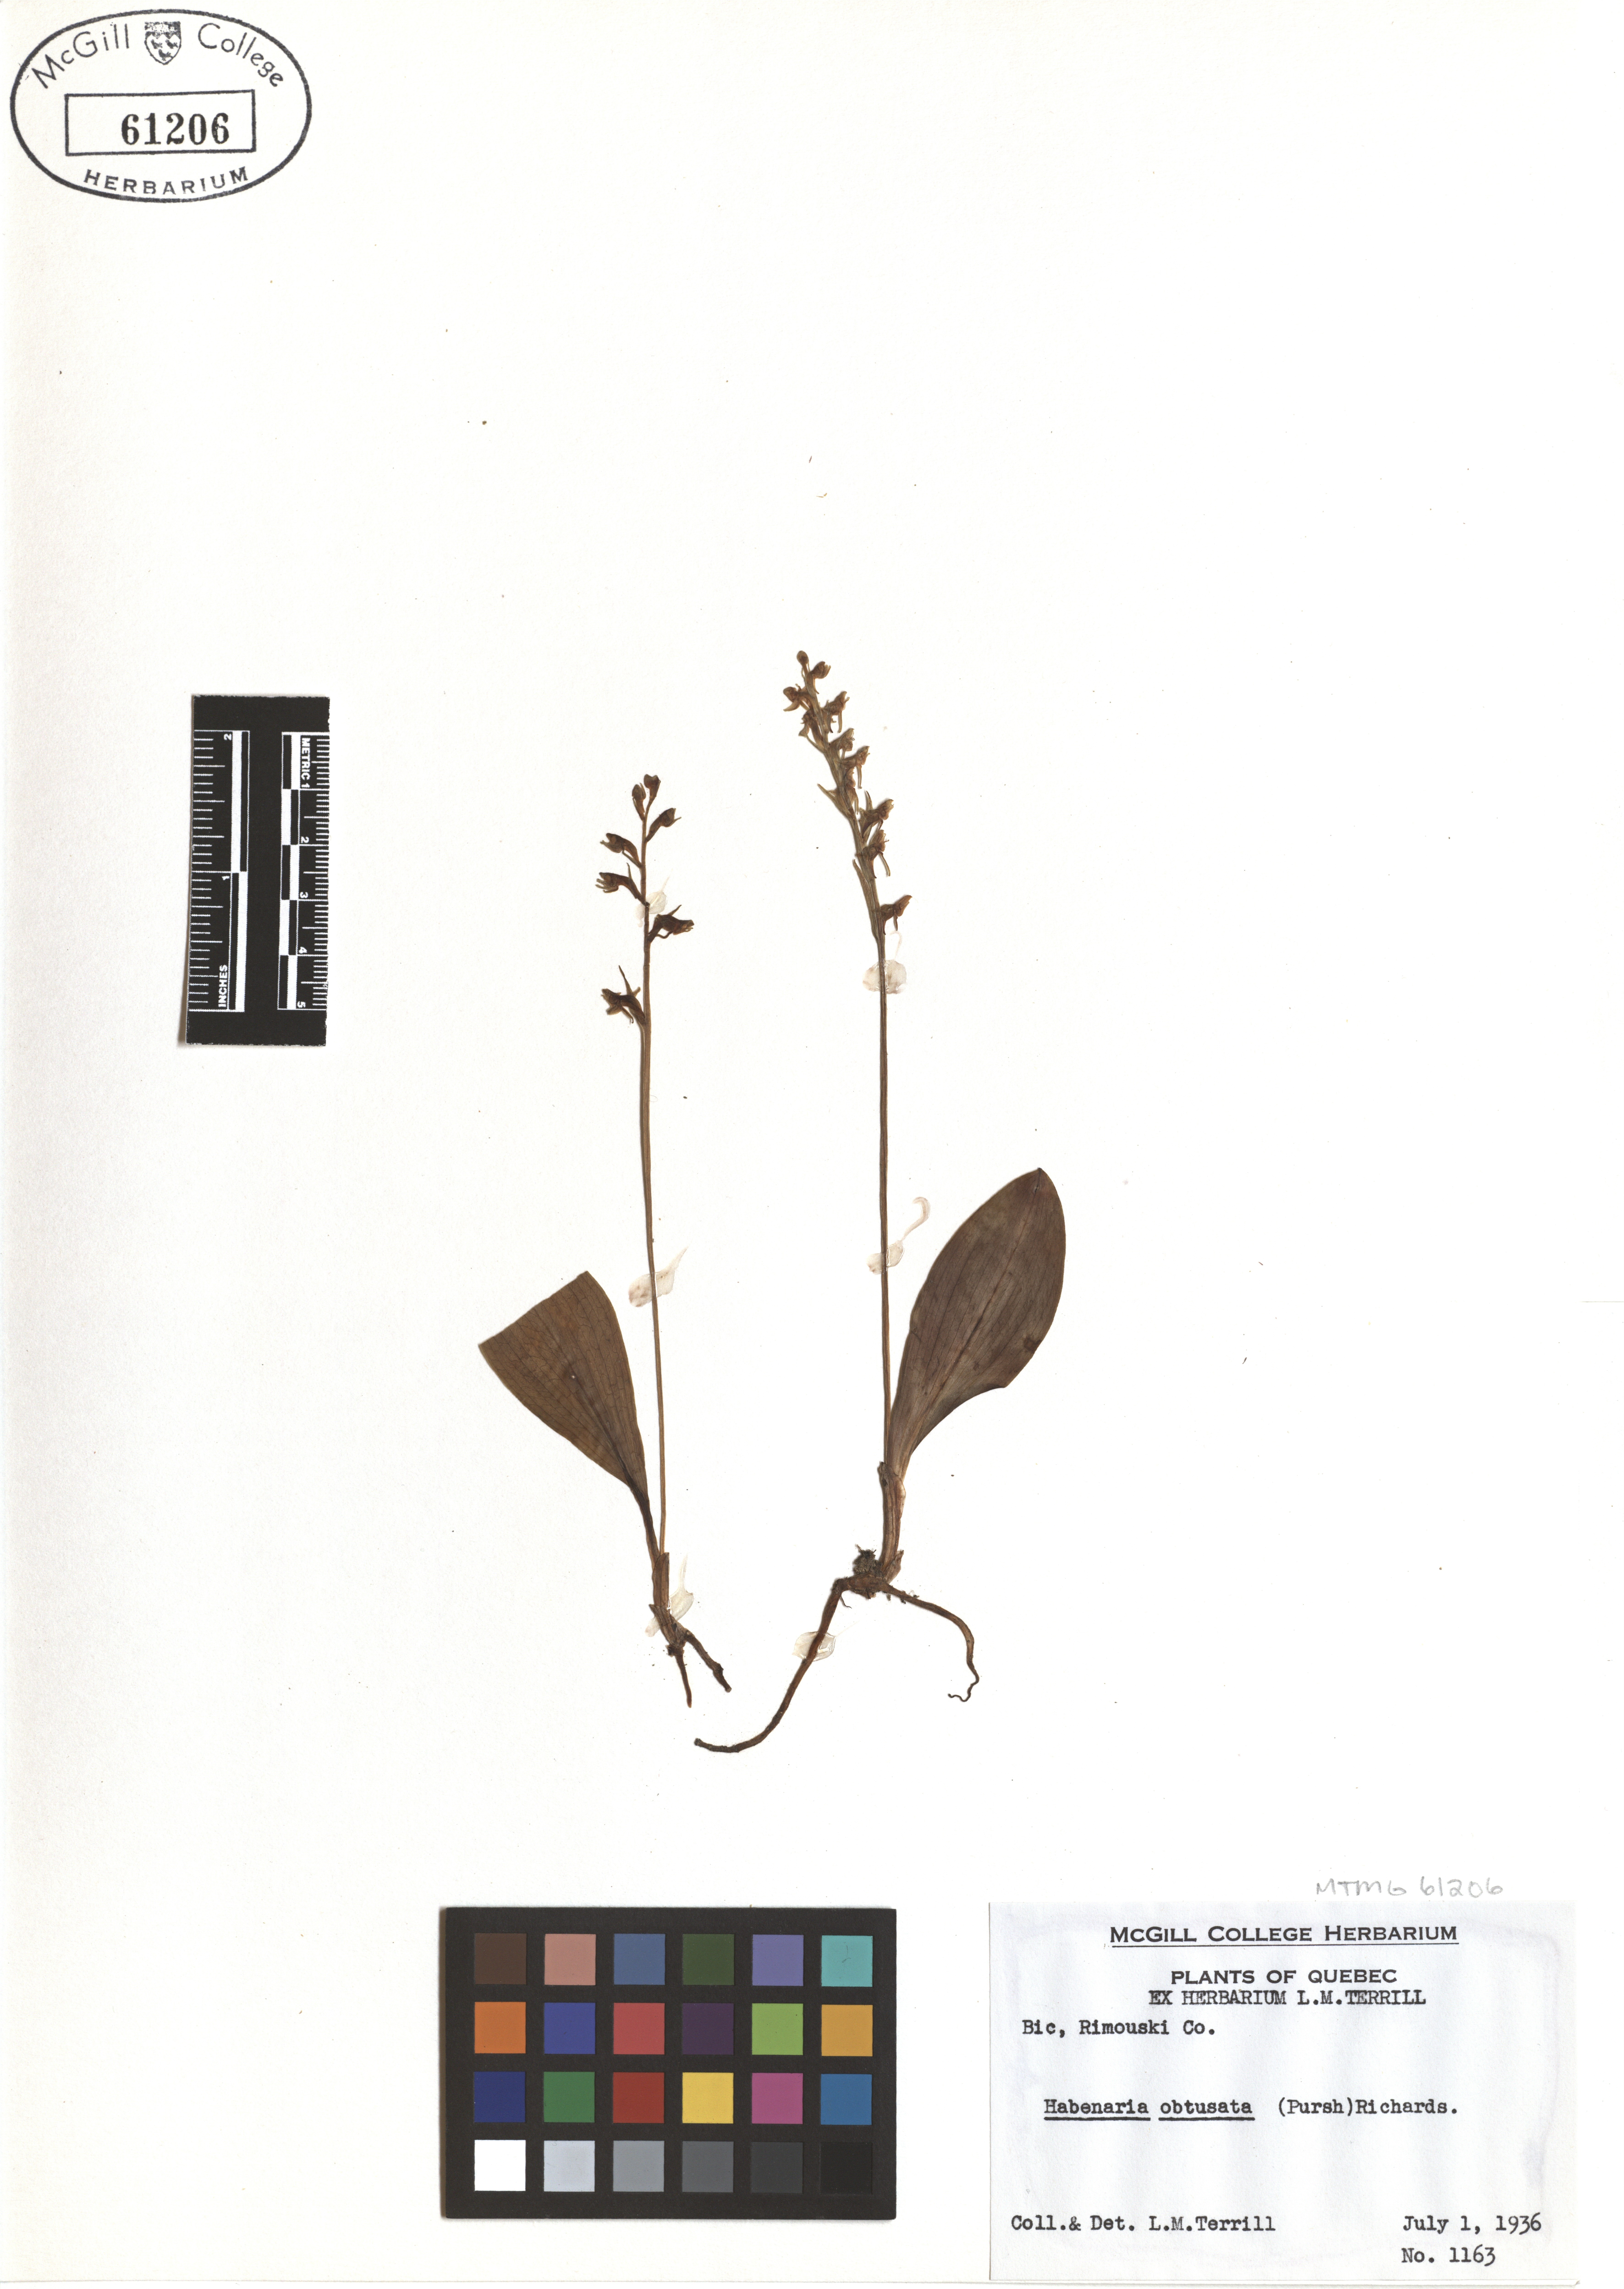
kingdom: Plantae
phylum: Tracheophyta
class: Liliopsida
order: Asparagales
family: Orchidaceae
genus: Platanthera
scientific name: Platanthera obtusata
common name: Blunt bog orchid
